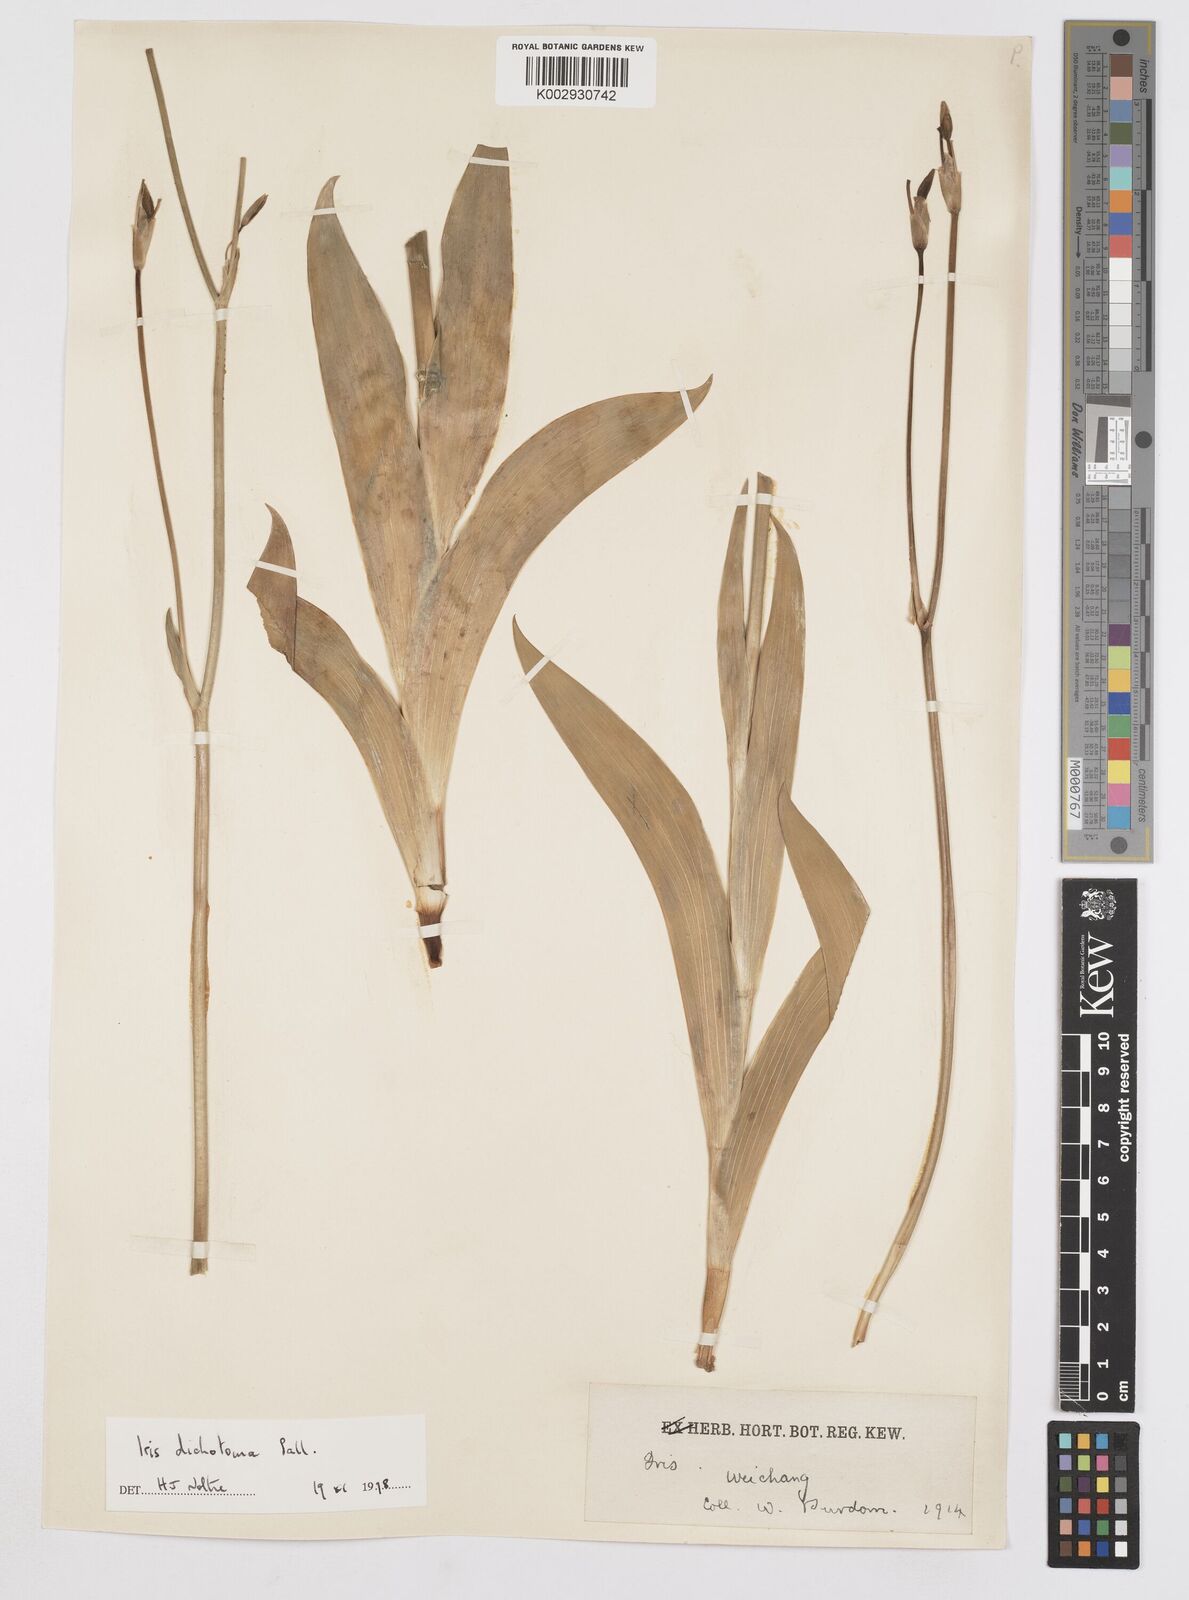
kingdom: Plantae
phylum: Tracheophyta
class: Liliopsida
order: Asparagales
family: Iridaceae
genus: Iris
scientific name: Iris dichotoma
